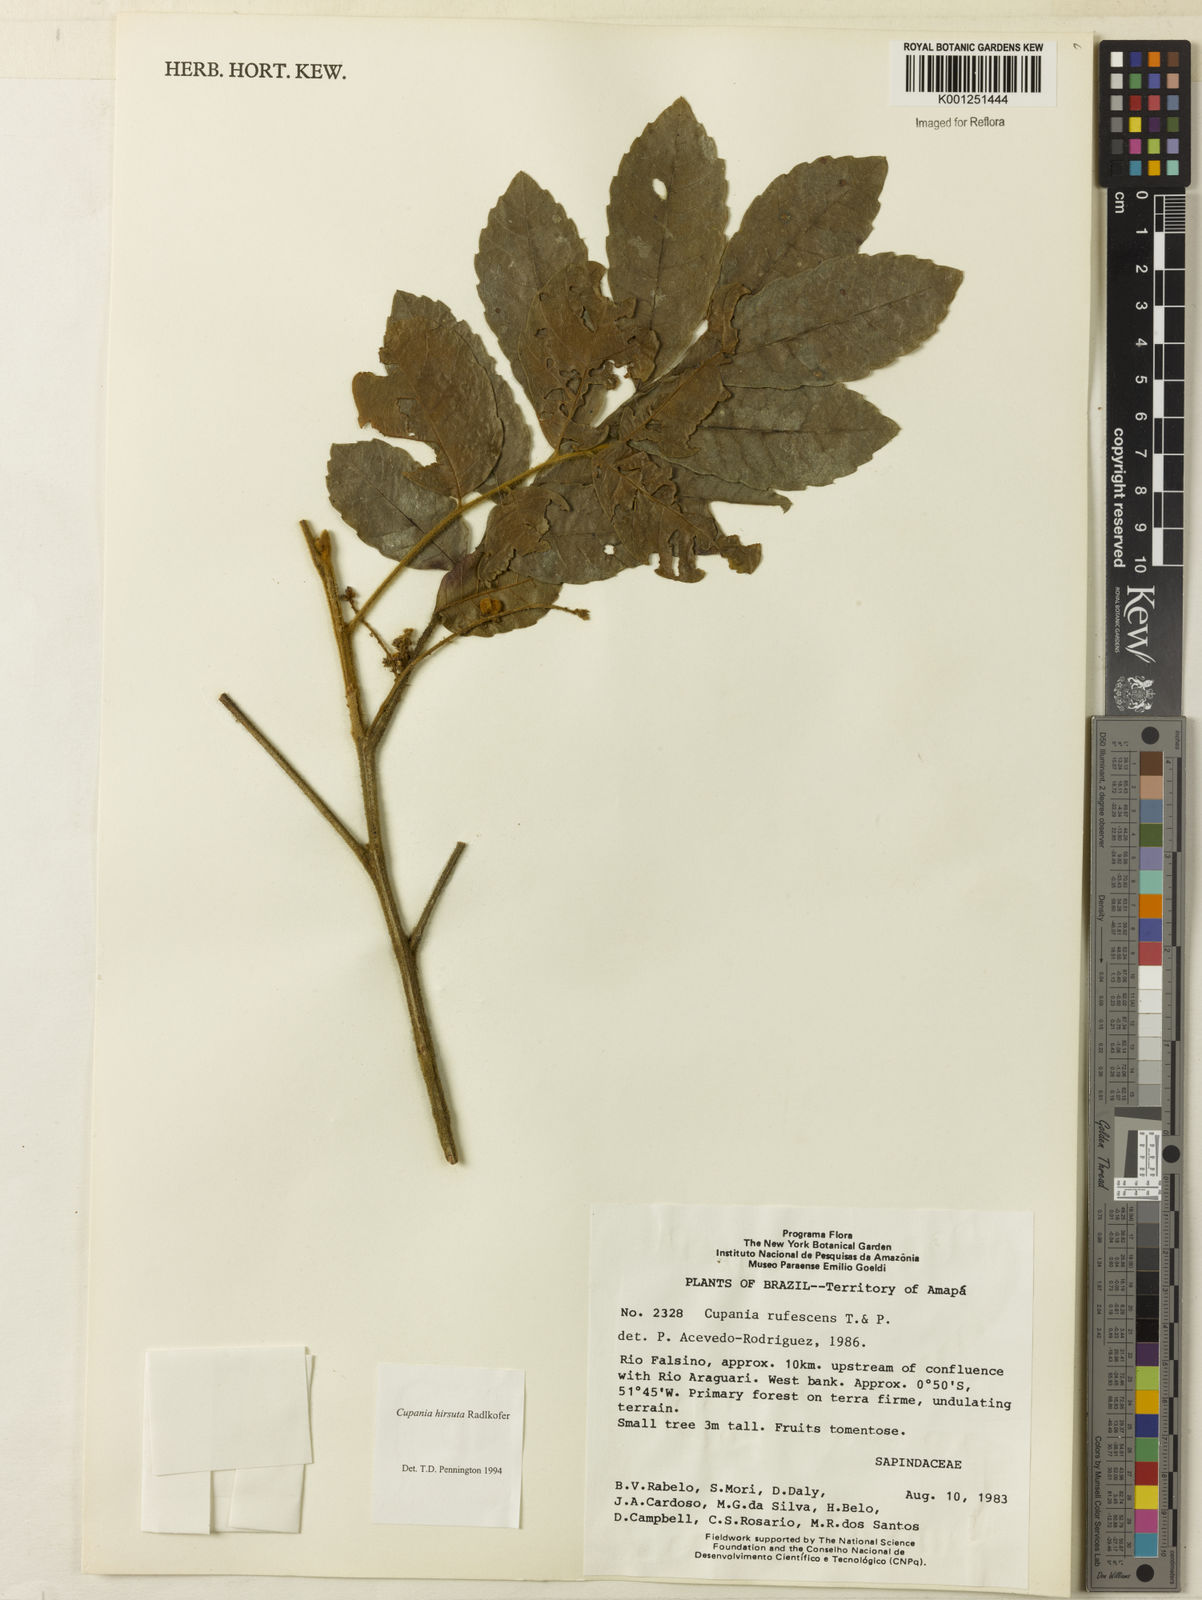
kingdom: Plantae
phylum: Tracheophyta
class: Magnoliopsida
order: Sapindales
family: Sapindaceae
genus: Cupania
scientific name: Cupania hirsuta
